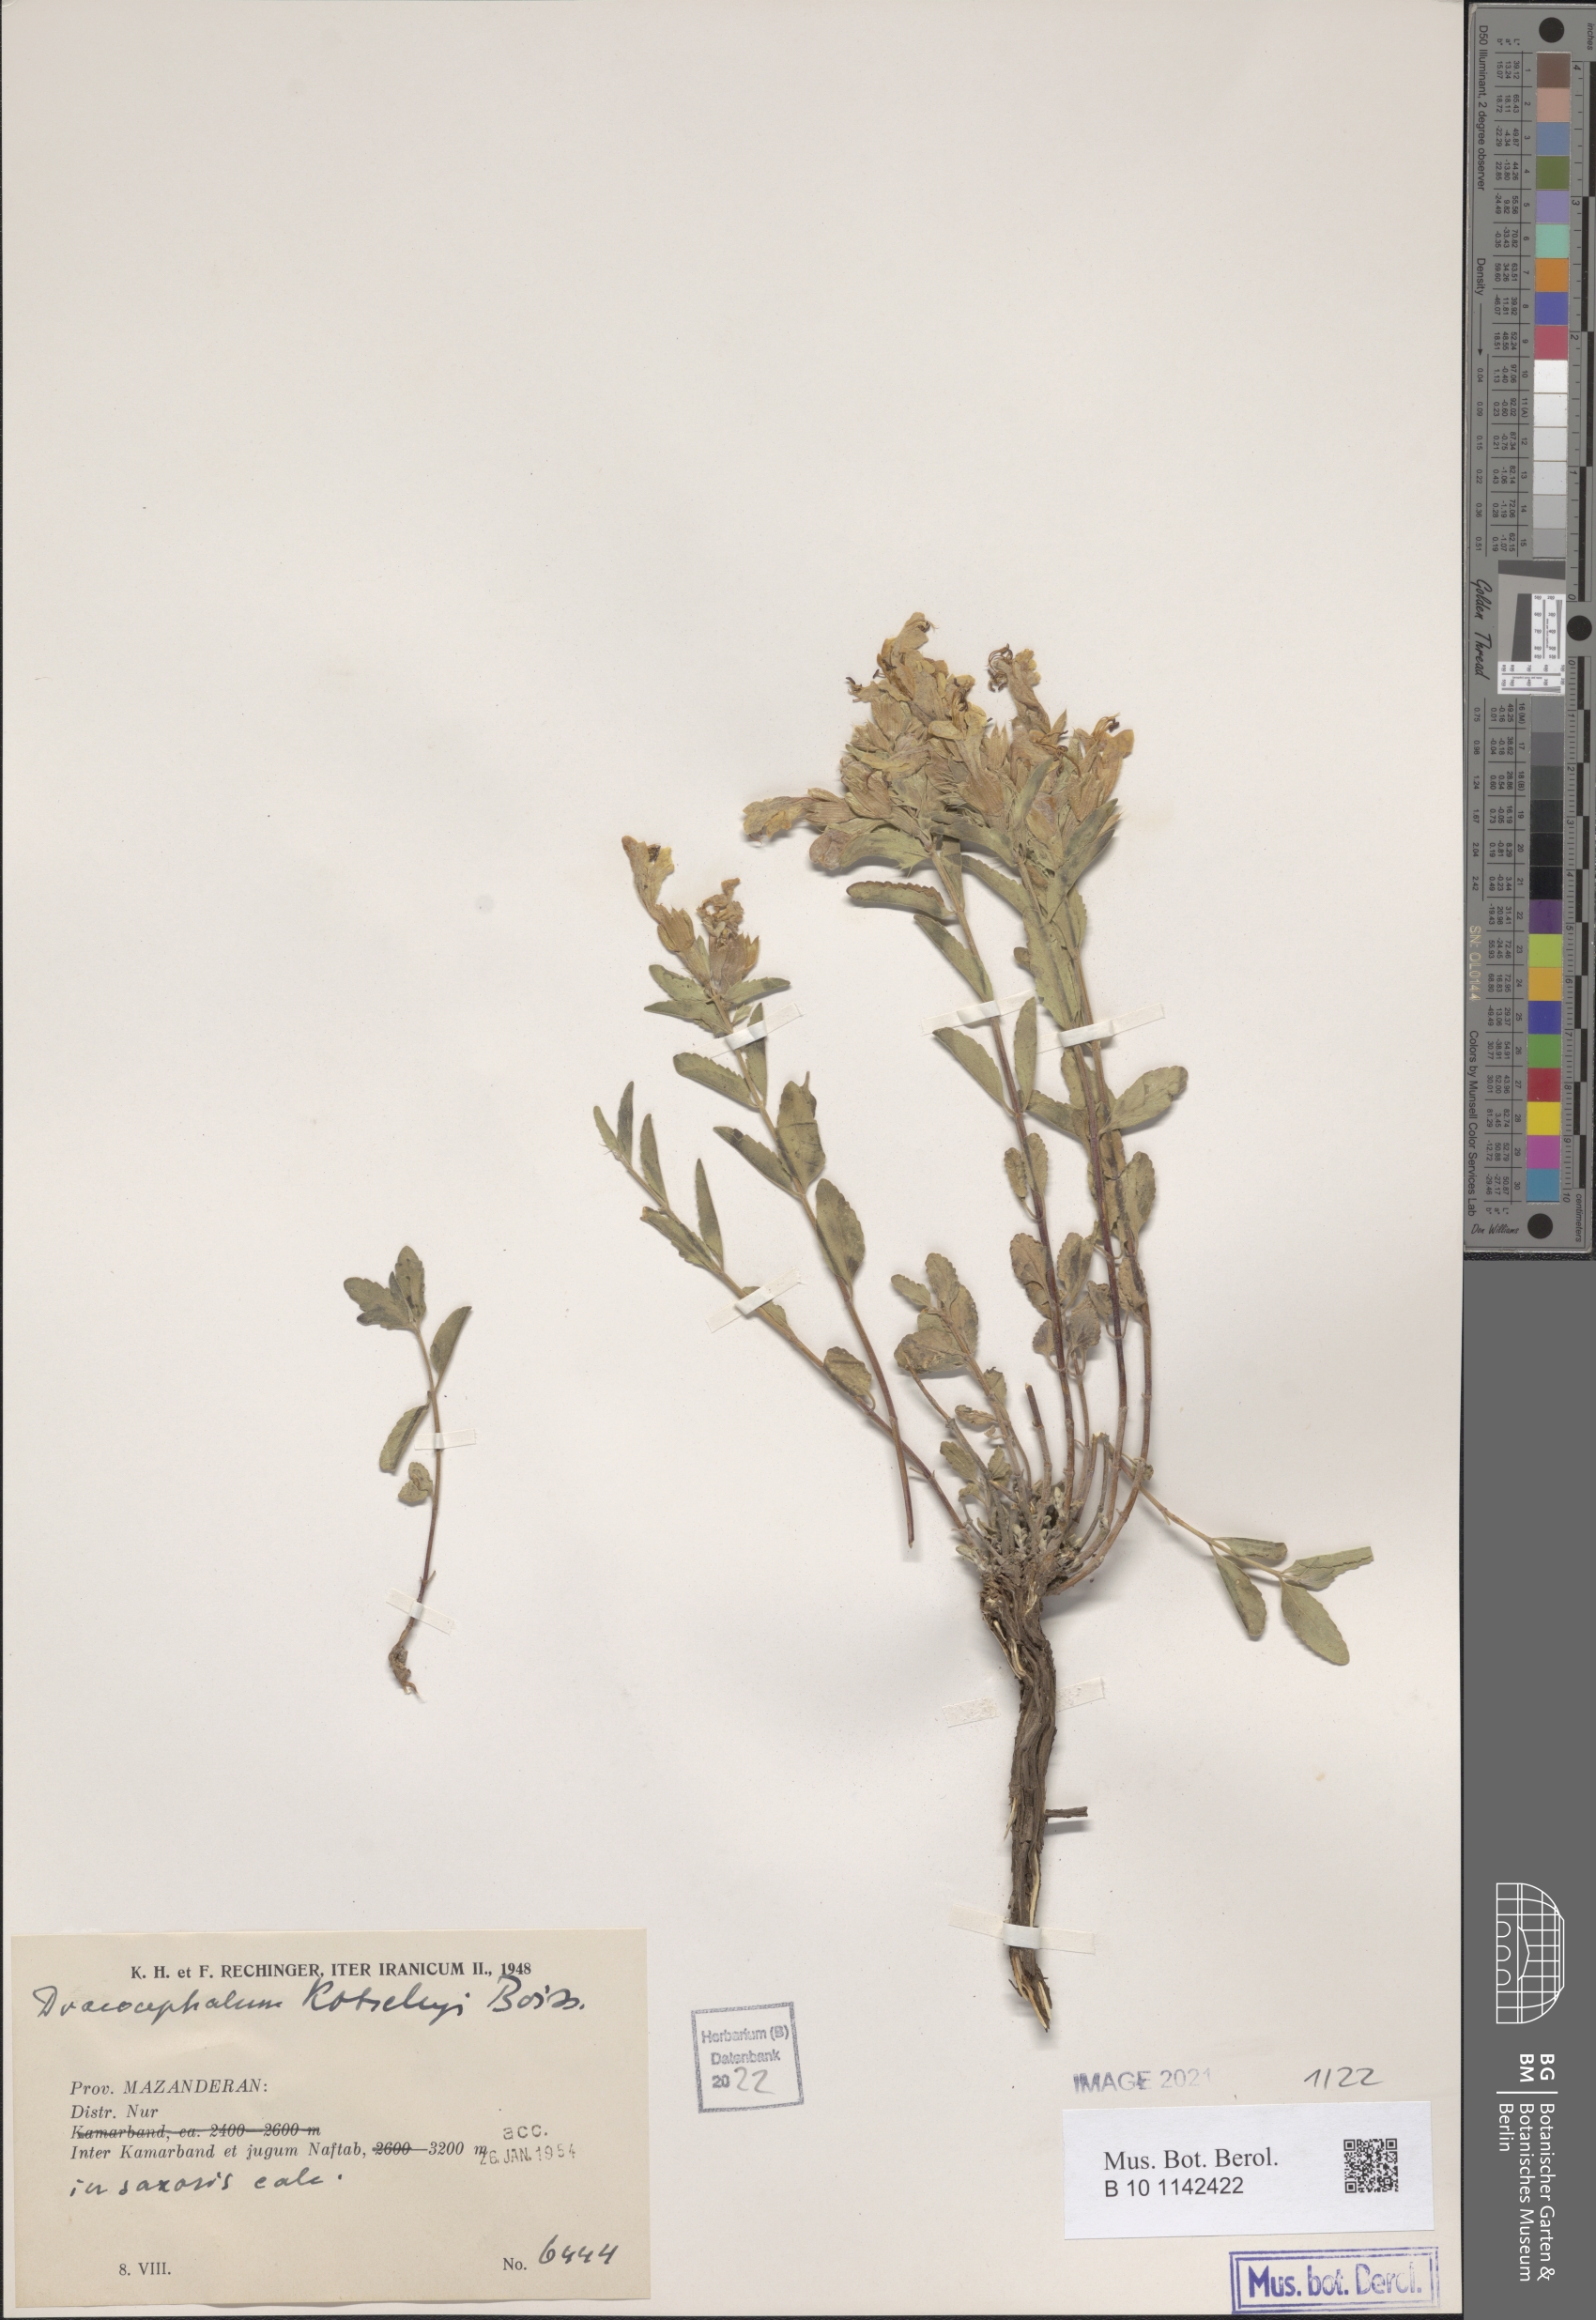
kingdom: Plantae
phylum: Tracheophyta
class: Magnoliopsida
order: Lamiales
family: Lamiaceae
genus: Dracocephalum
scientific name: Dracocephalum kotschyi
